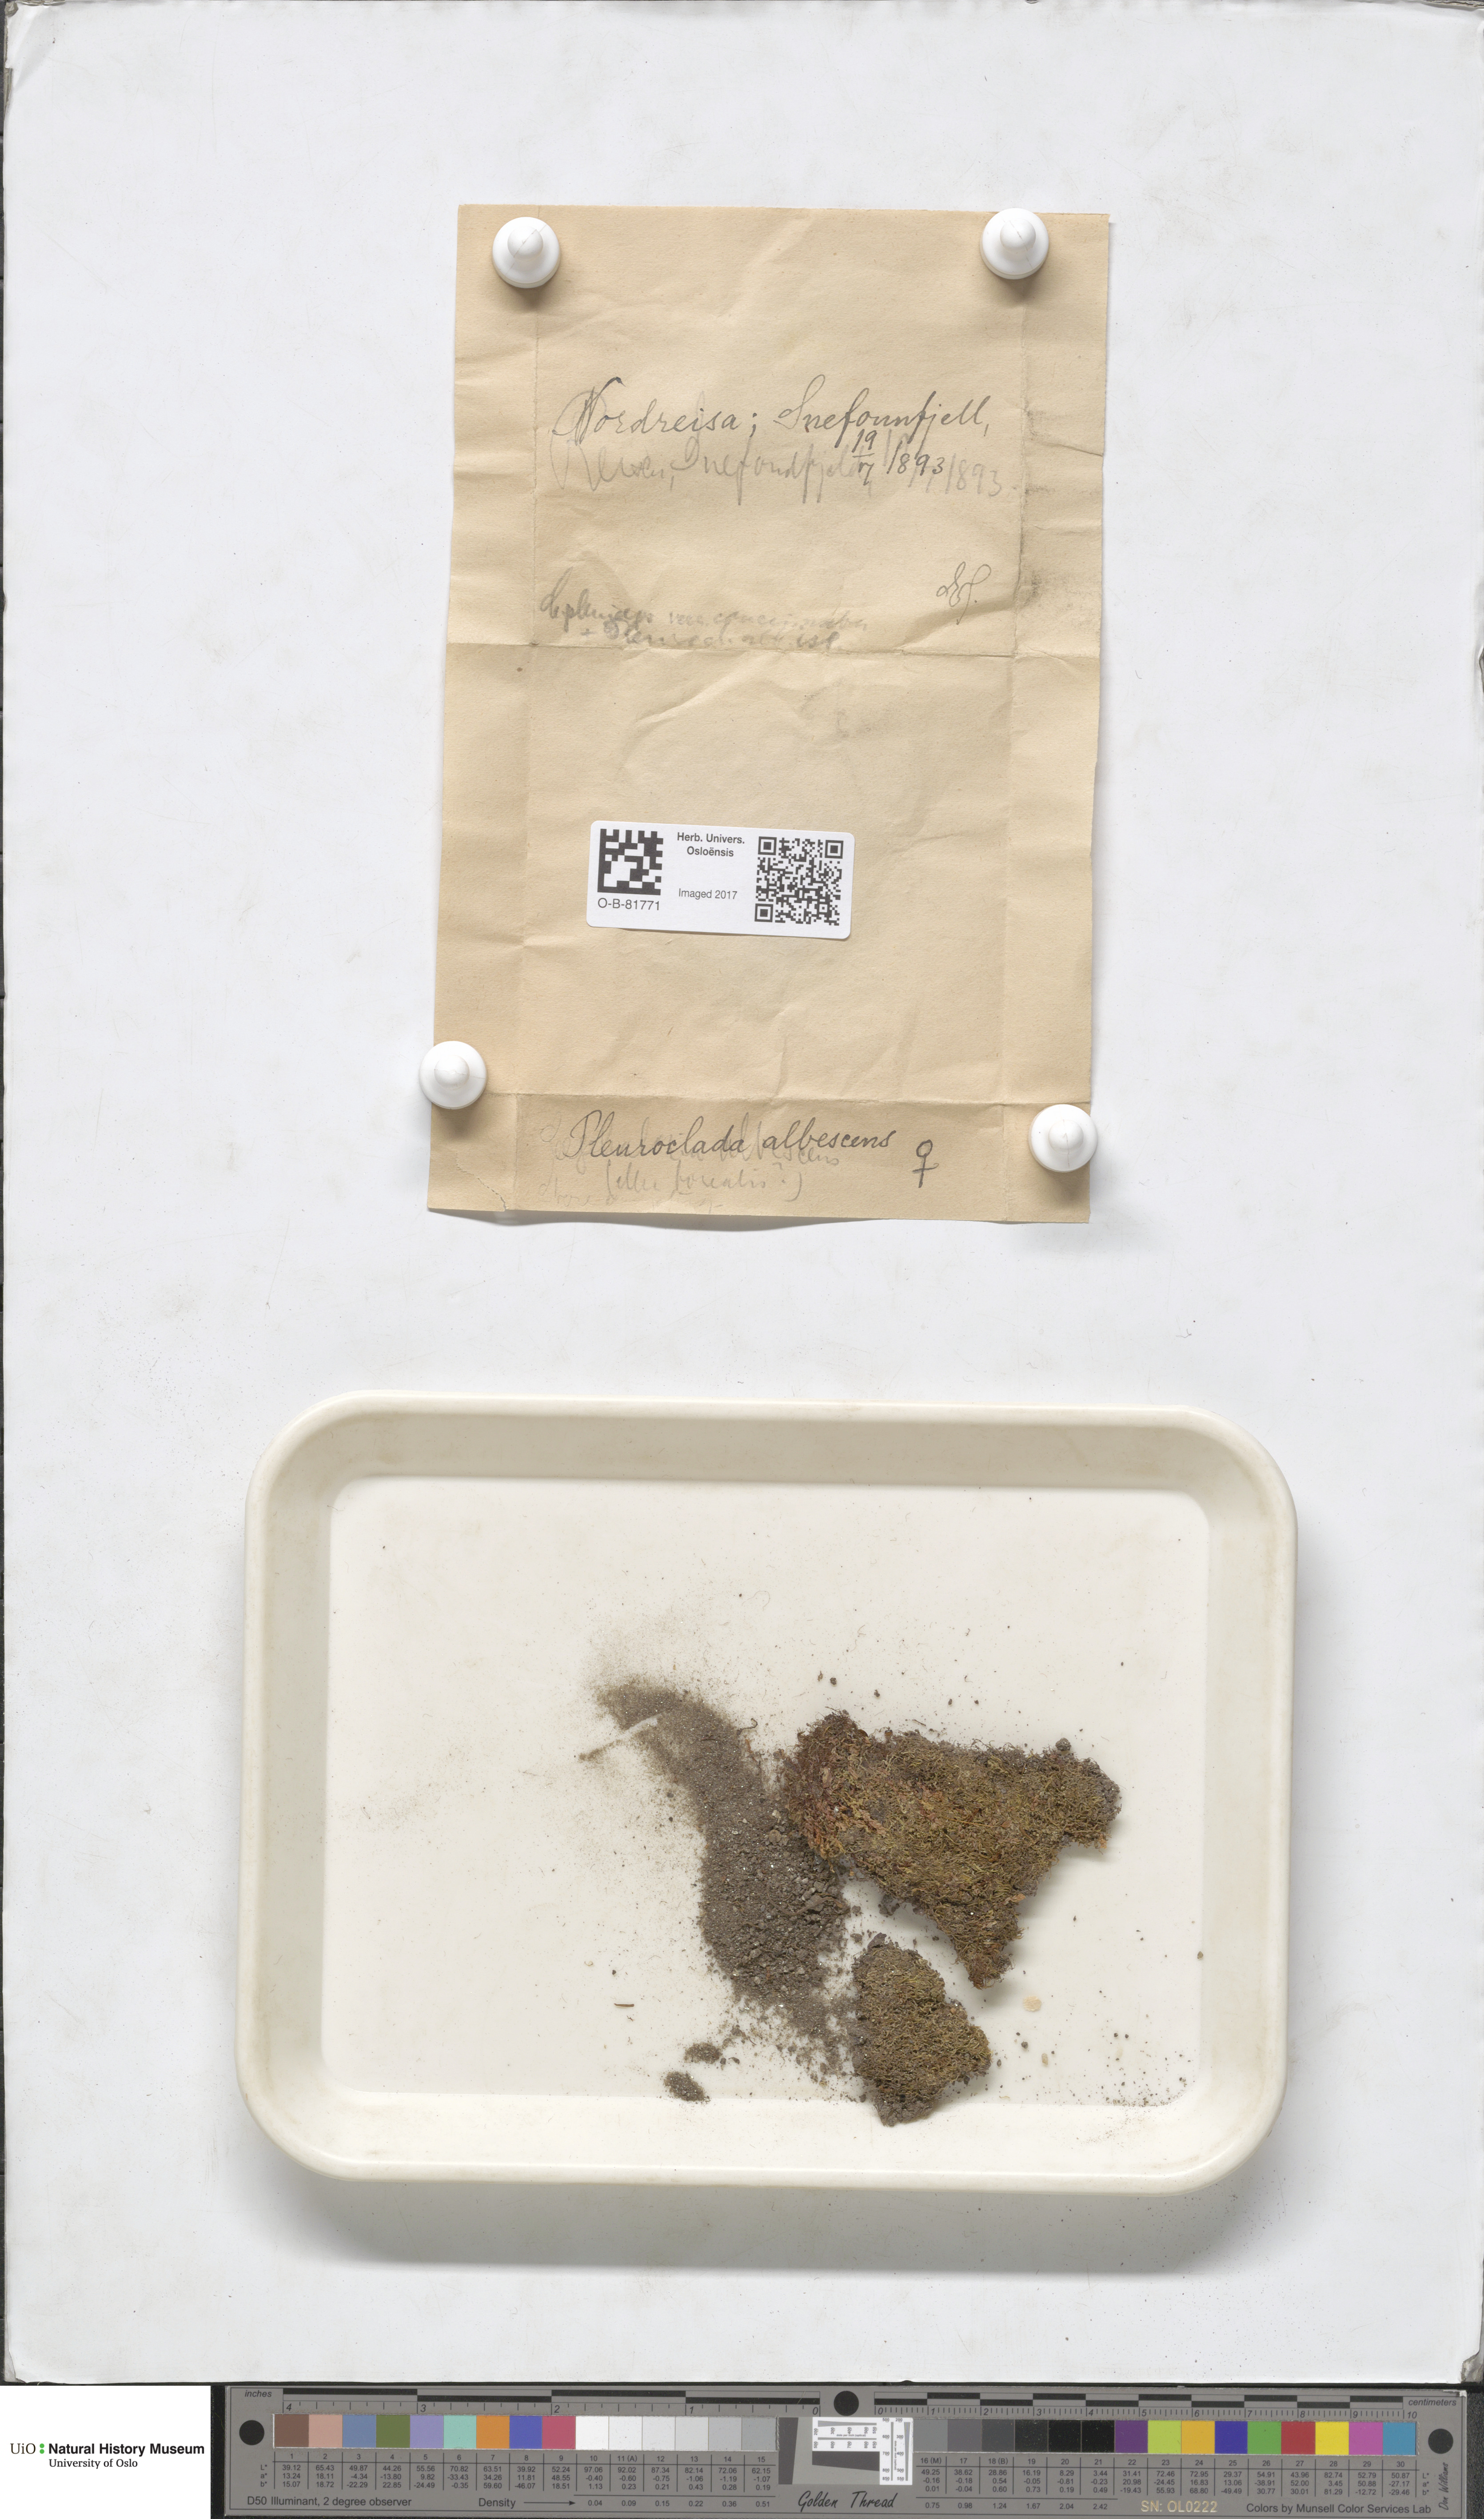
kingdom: Plantae
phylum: Marchantiophyta
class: Jungermanniopsida
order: Jungermanniales
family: Cephaloziaceae
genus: Fuscocephaloziopsis
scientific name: Fuscocephaloziopsis albescens
